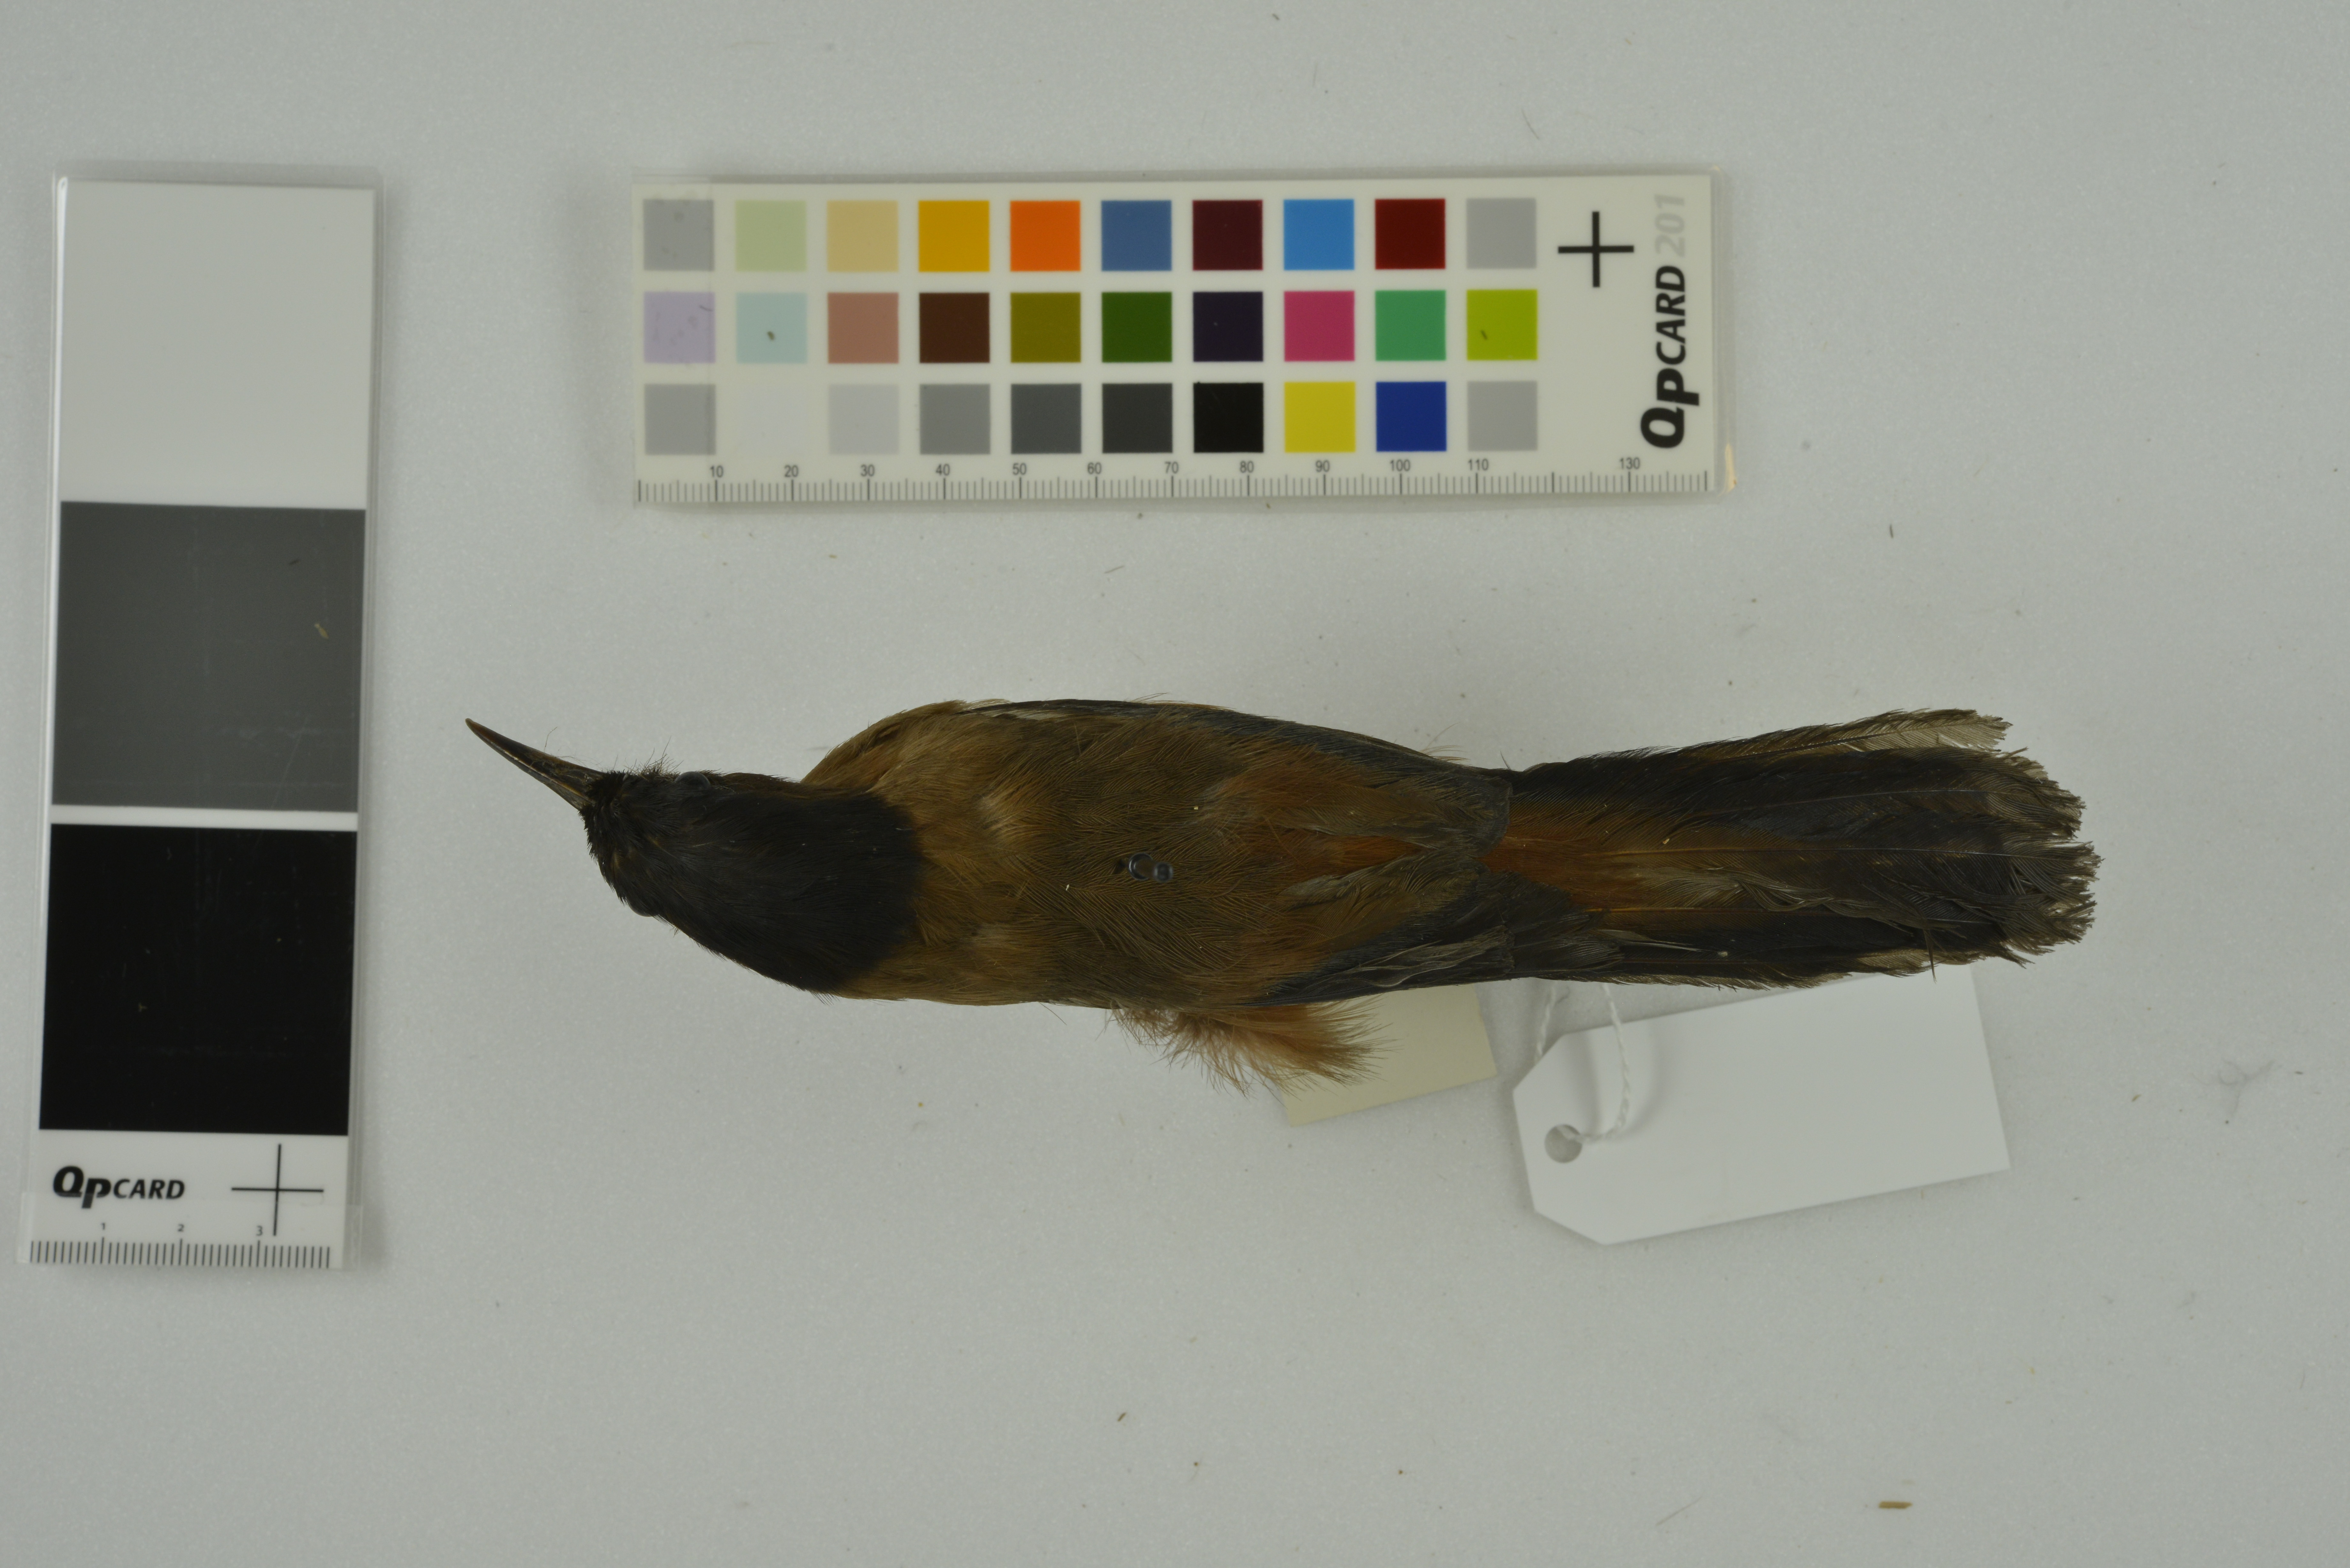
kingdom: Animalia
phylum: Chordata
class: Aves
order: Passeriformes
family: Leiothrichidae
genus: Heterophasia
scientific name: Heterophasia capistrata
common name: Rufous sibia
